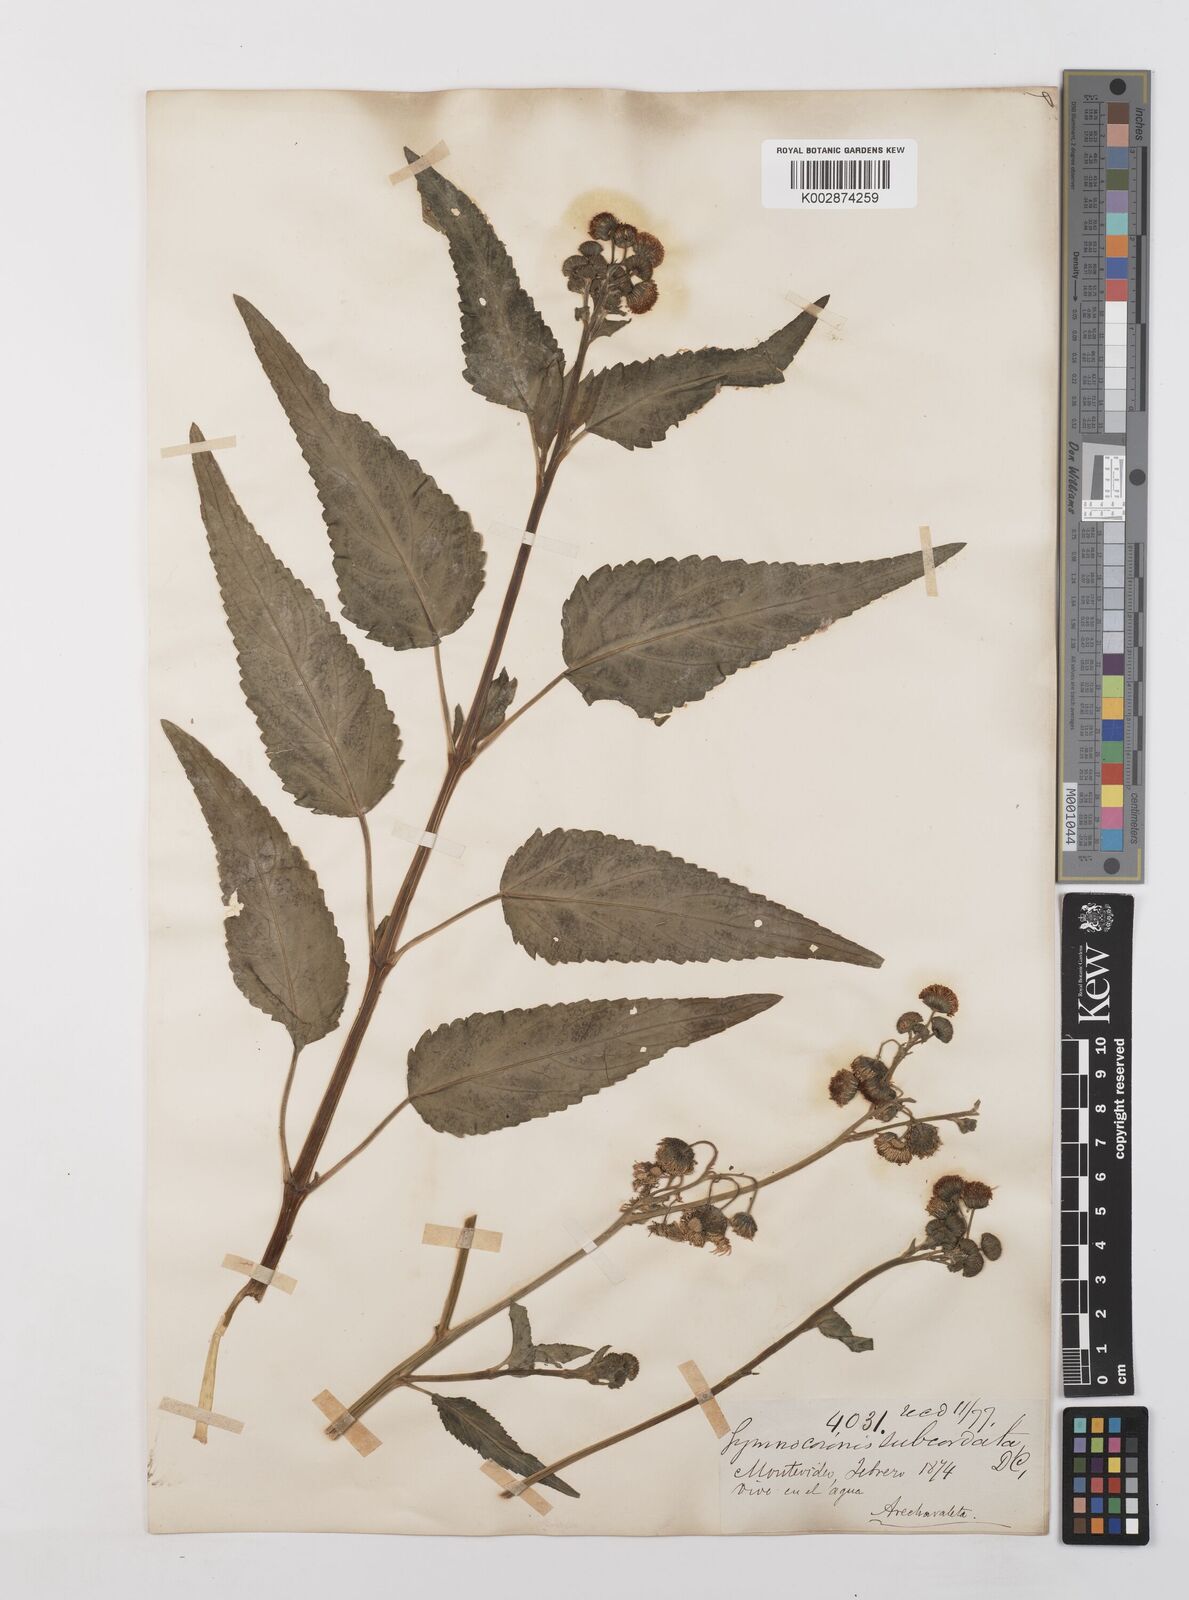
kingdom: Plantae
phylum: Tracheophyta
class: Magnoliopsida
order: Asterales
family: Asteraceae
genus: Gymnocoronis
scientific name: Gymnocoronis spilanthoides
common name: Senegal teaplant
